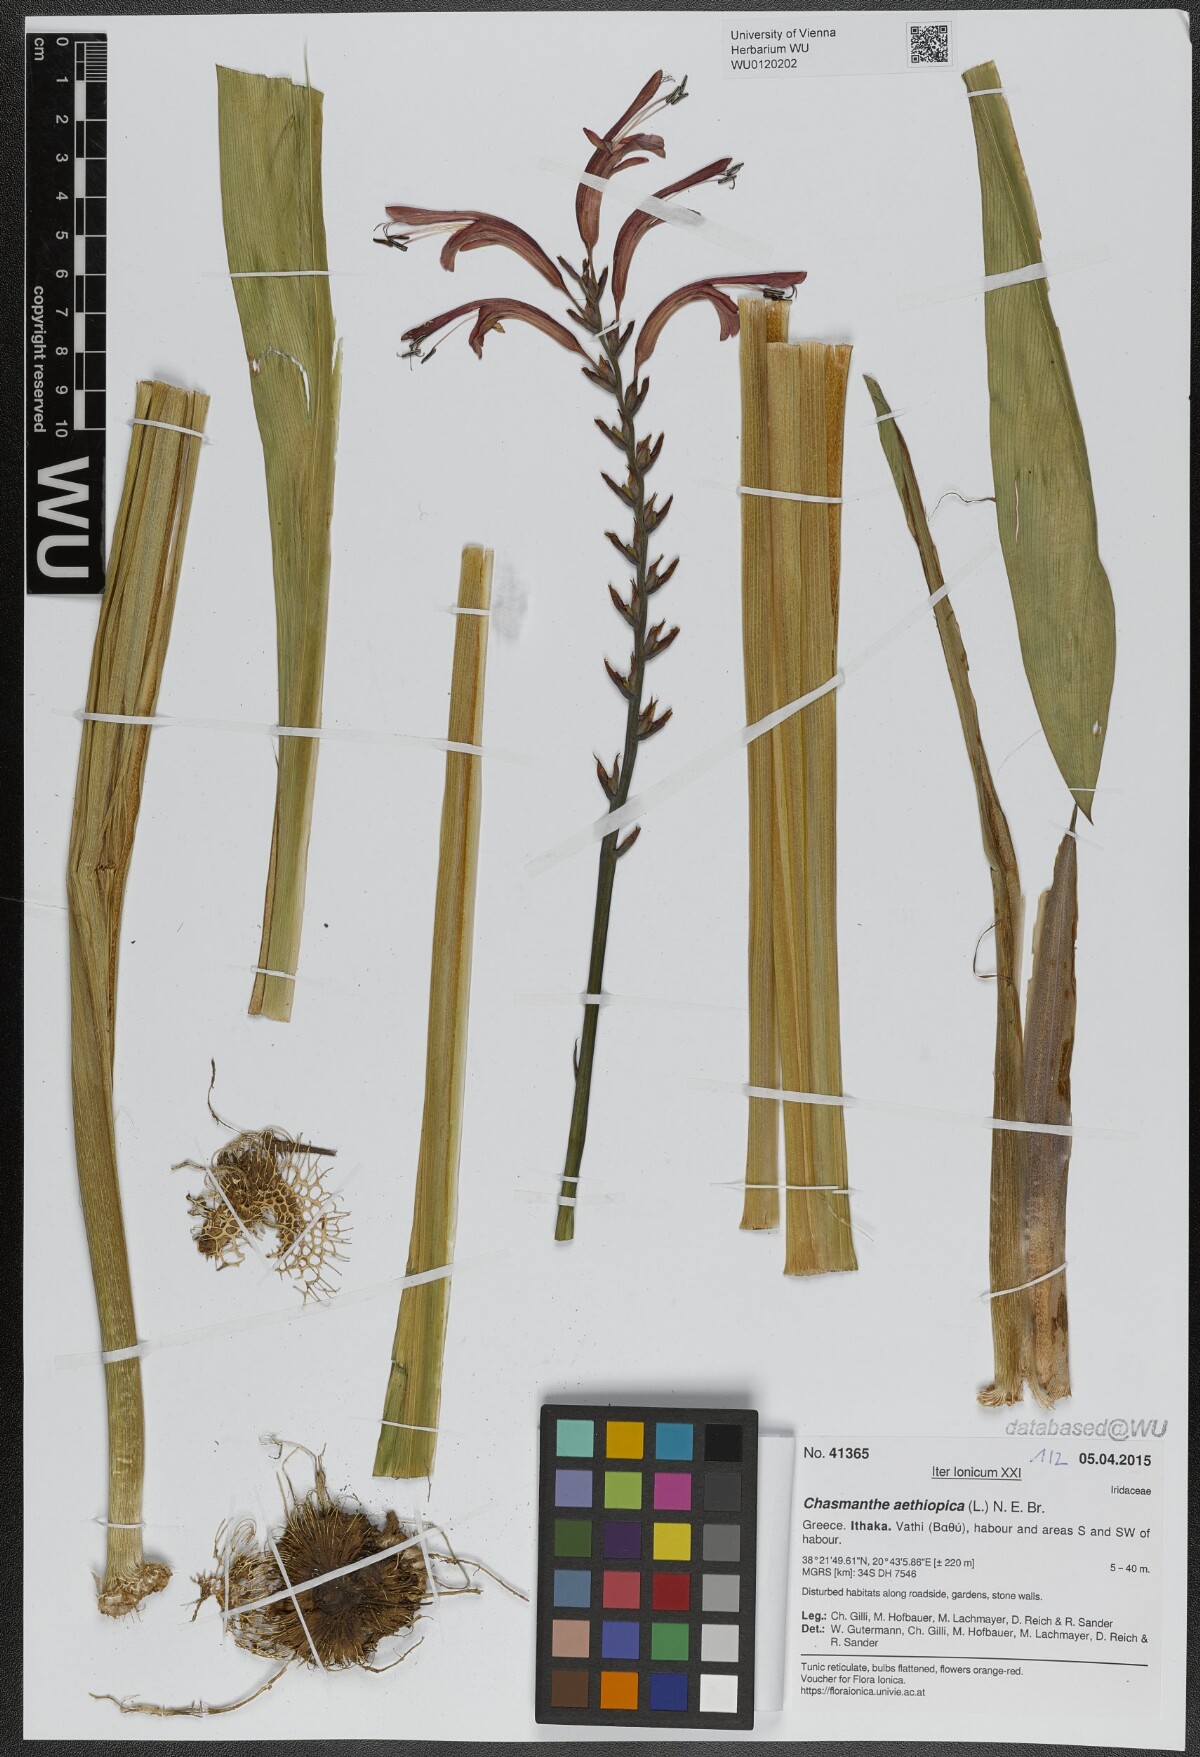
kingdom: Plantae
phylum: Tracheophyta
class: Liliopsida
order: Asparagales
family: Iridaceae
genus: Chasmanthe
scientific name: Chasmanthe floribunda
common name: African cornflag
